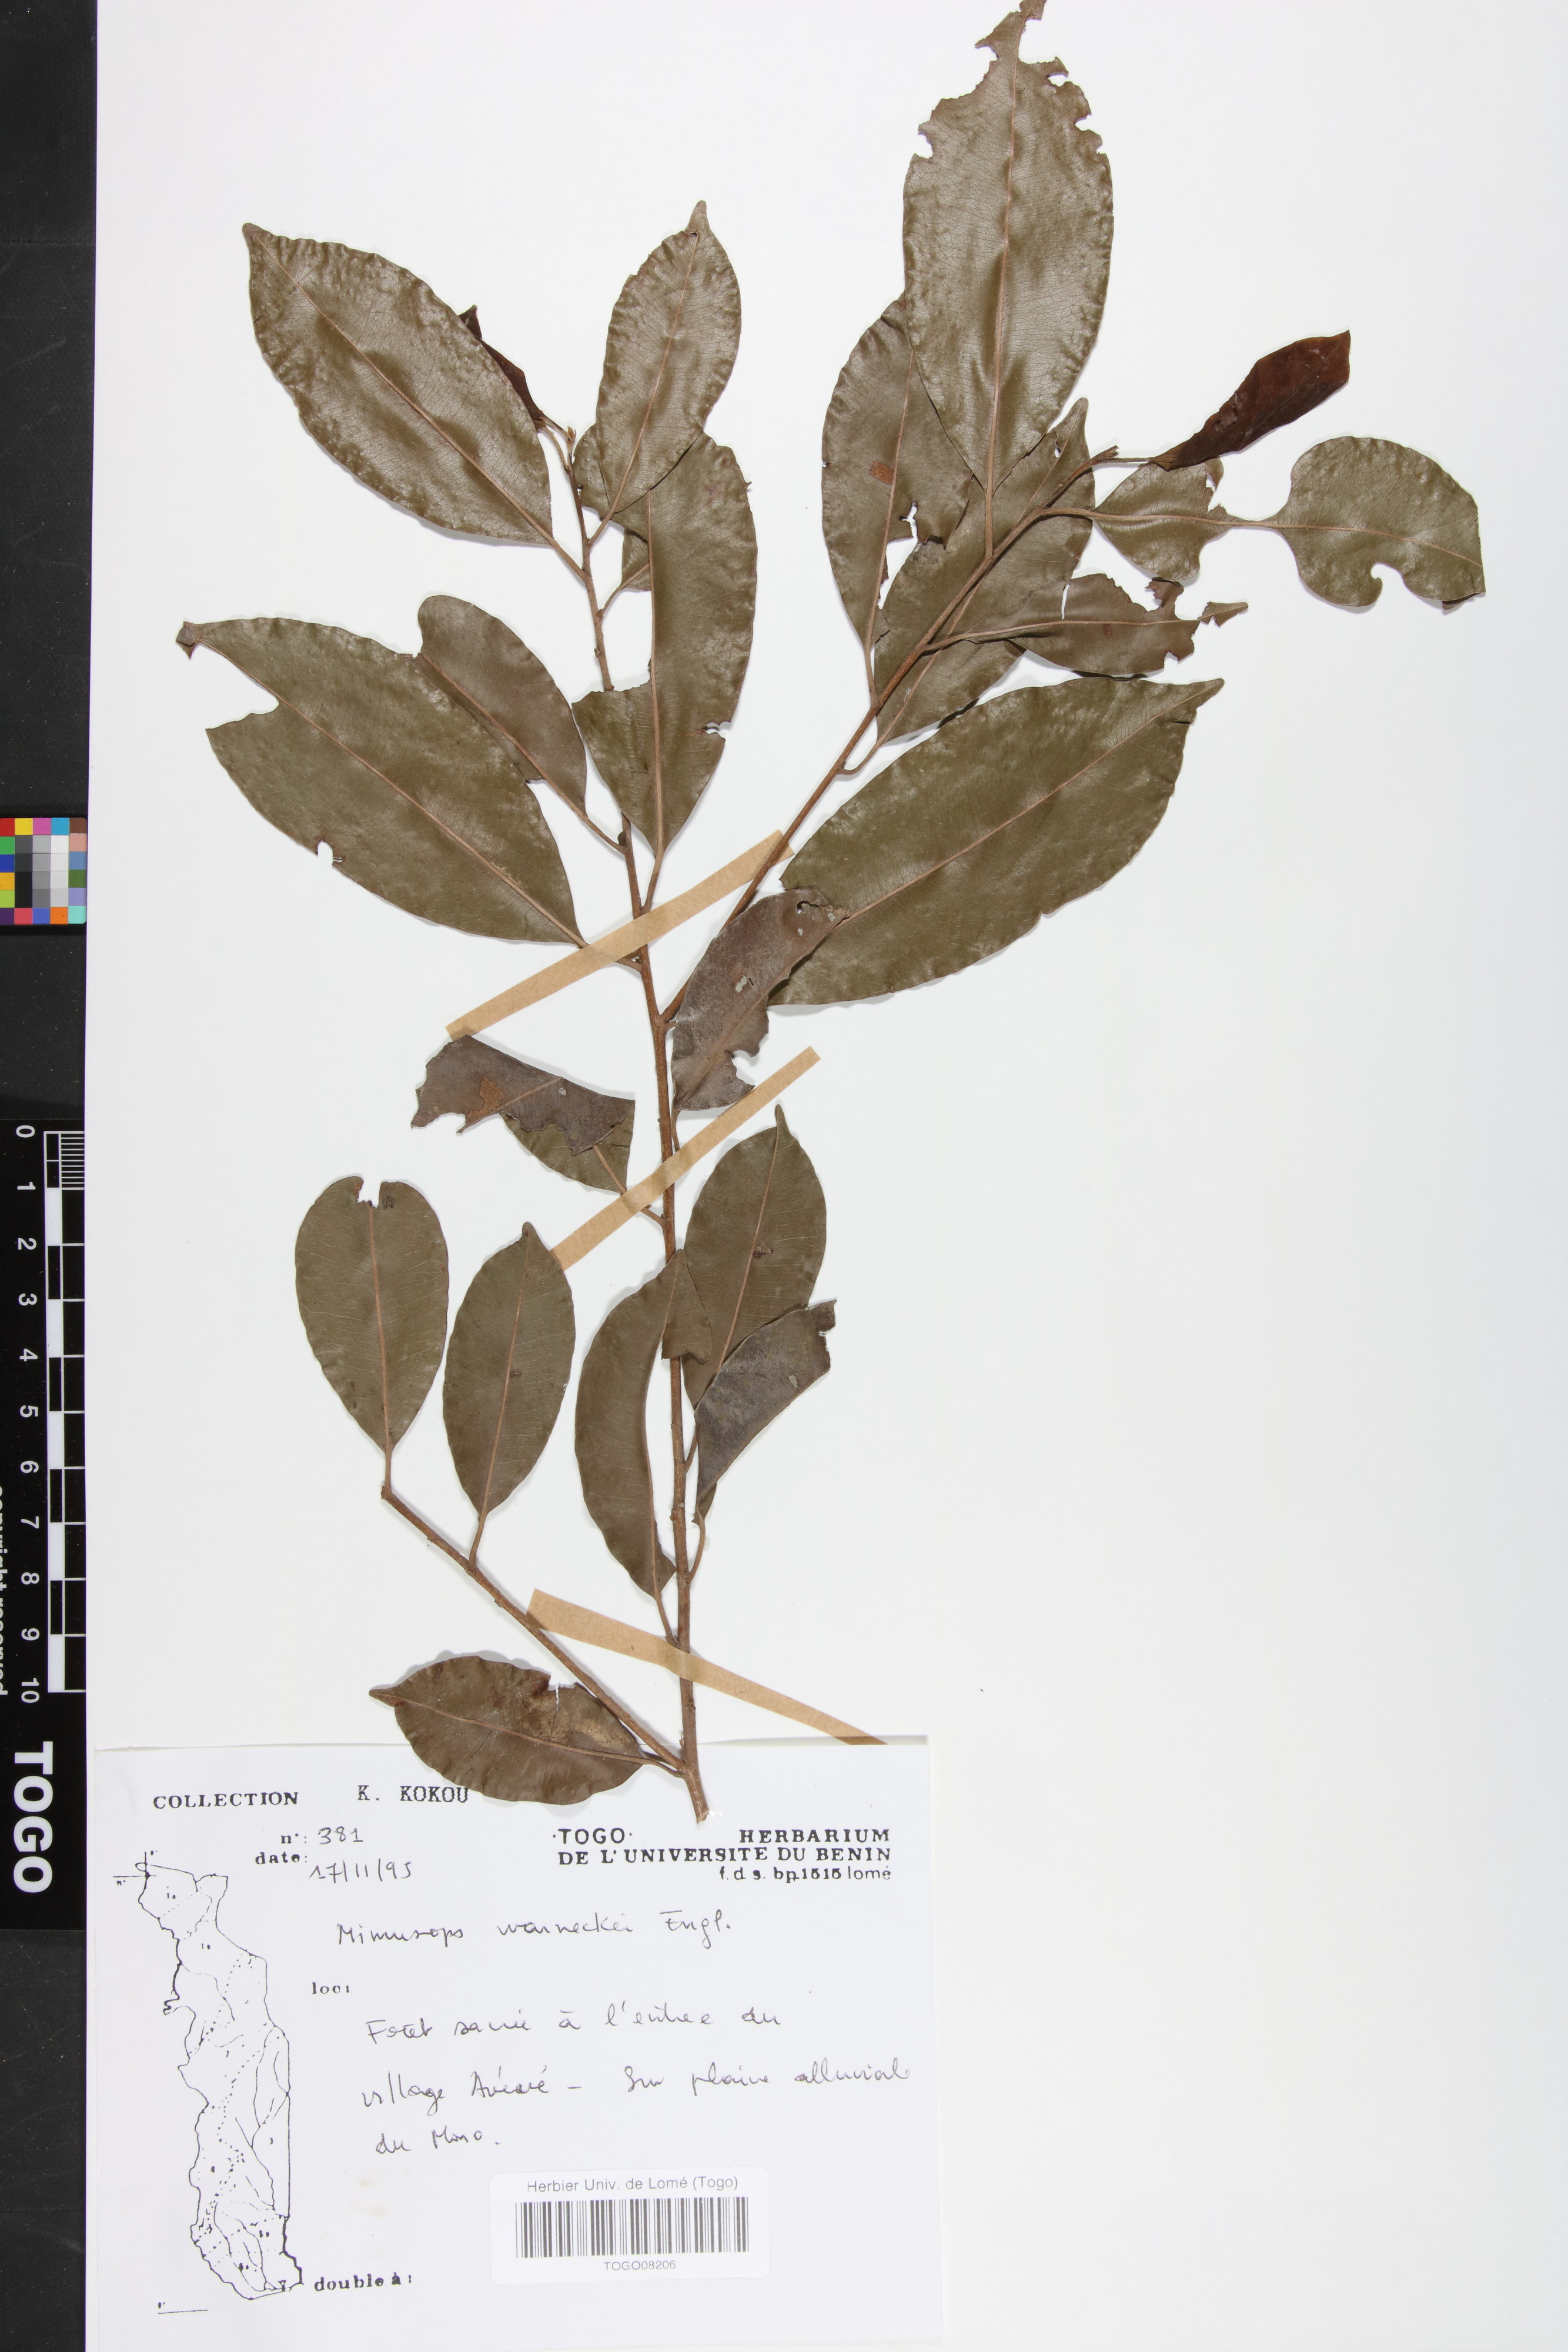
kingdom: Plantae
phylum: Tracheophyta
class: Magnoliopsida
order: Ericales
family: Sapotaceae
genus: Mimusops
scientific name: Mimusops andongensis
